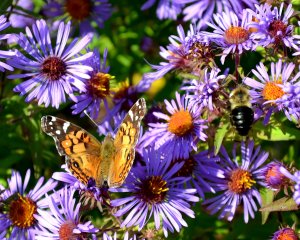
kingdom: Animalia
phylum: Arthropoda
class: Insecta
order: Lepidoptera
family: Nymphalidae
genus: Vanessa
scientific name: Vanessa virginiensis
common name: American Lady
